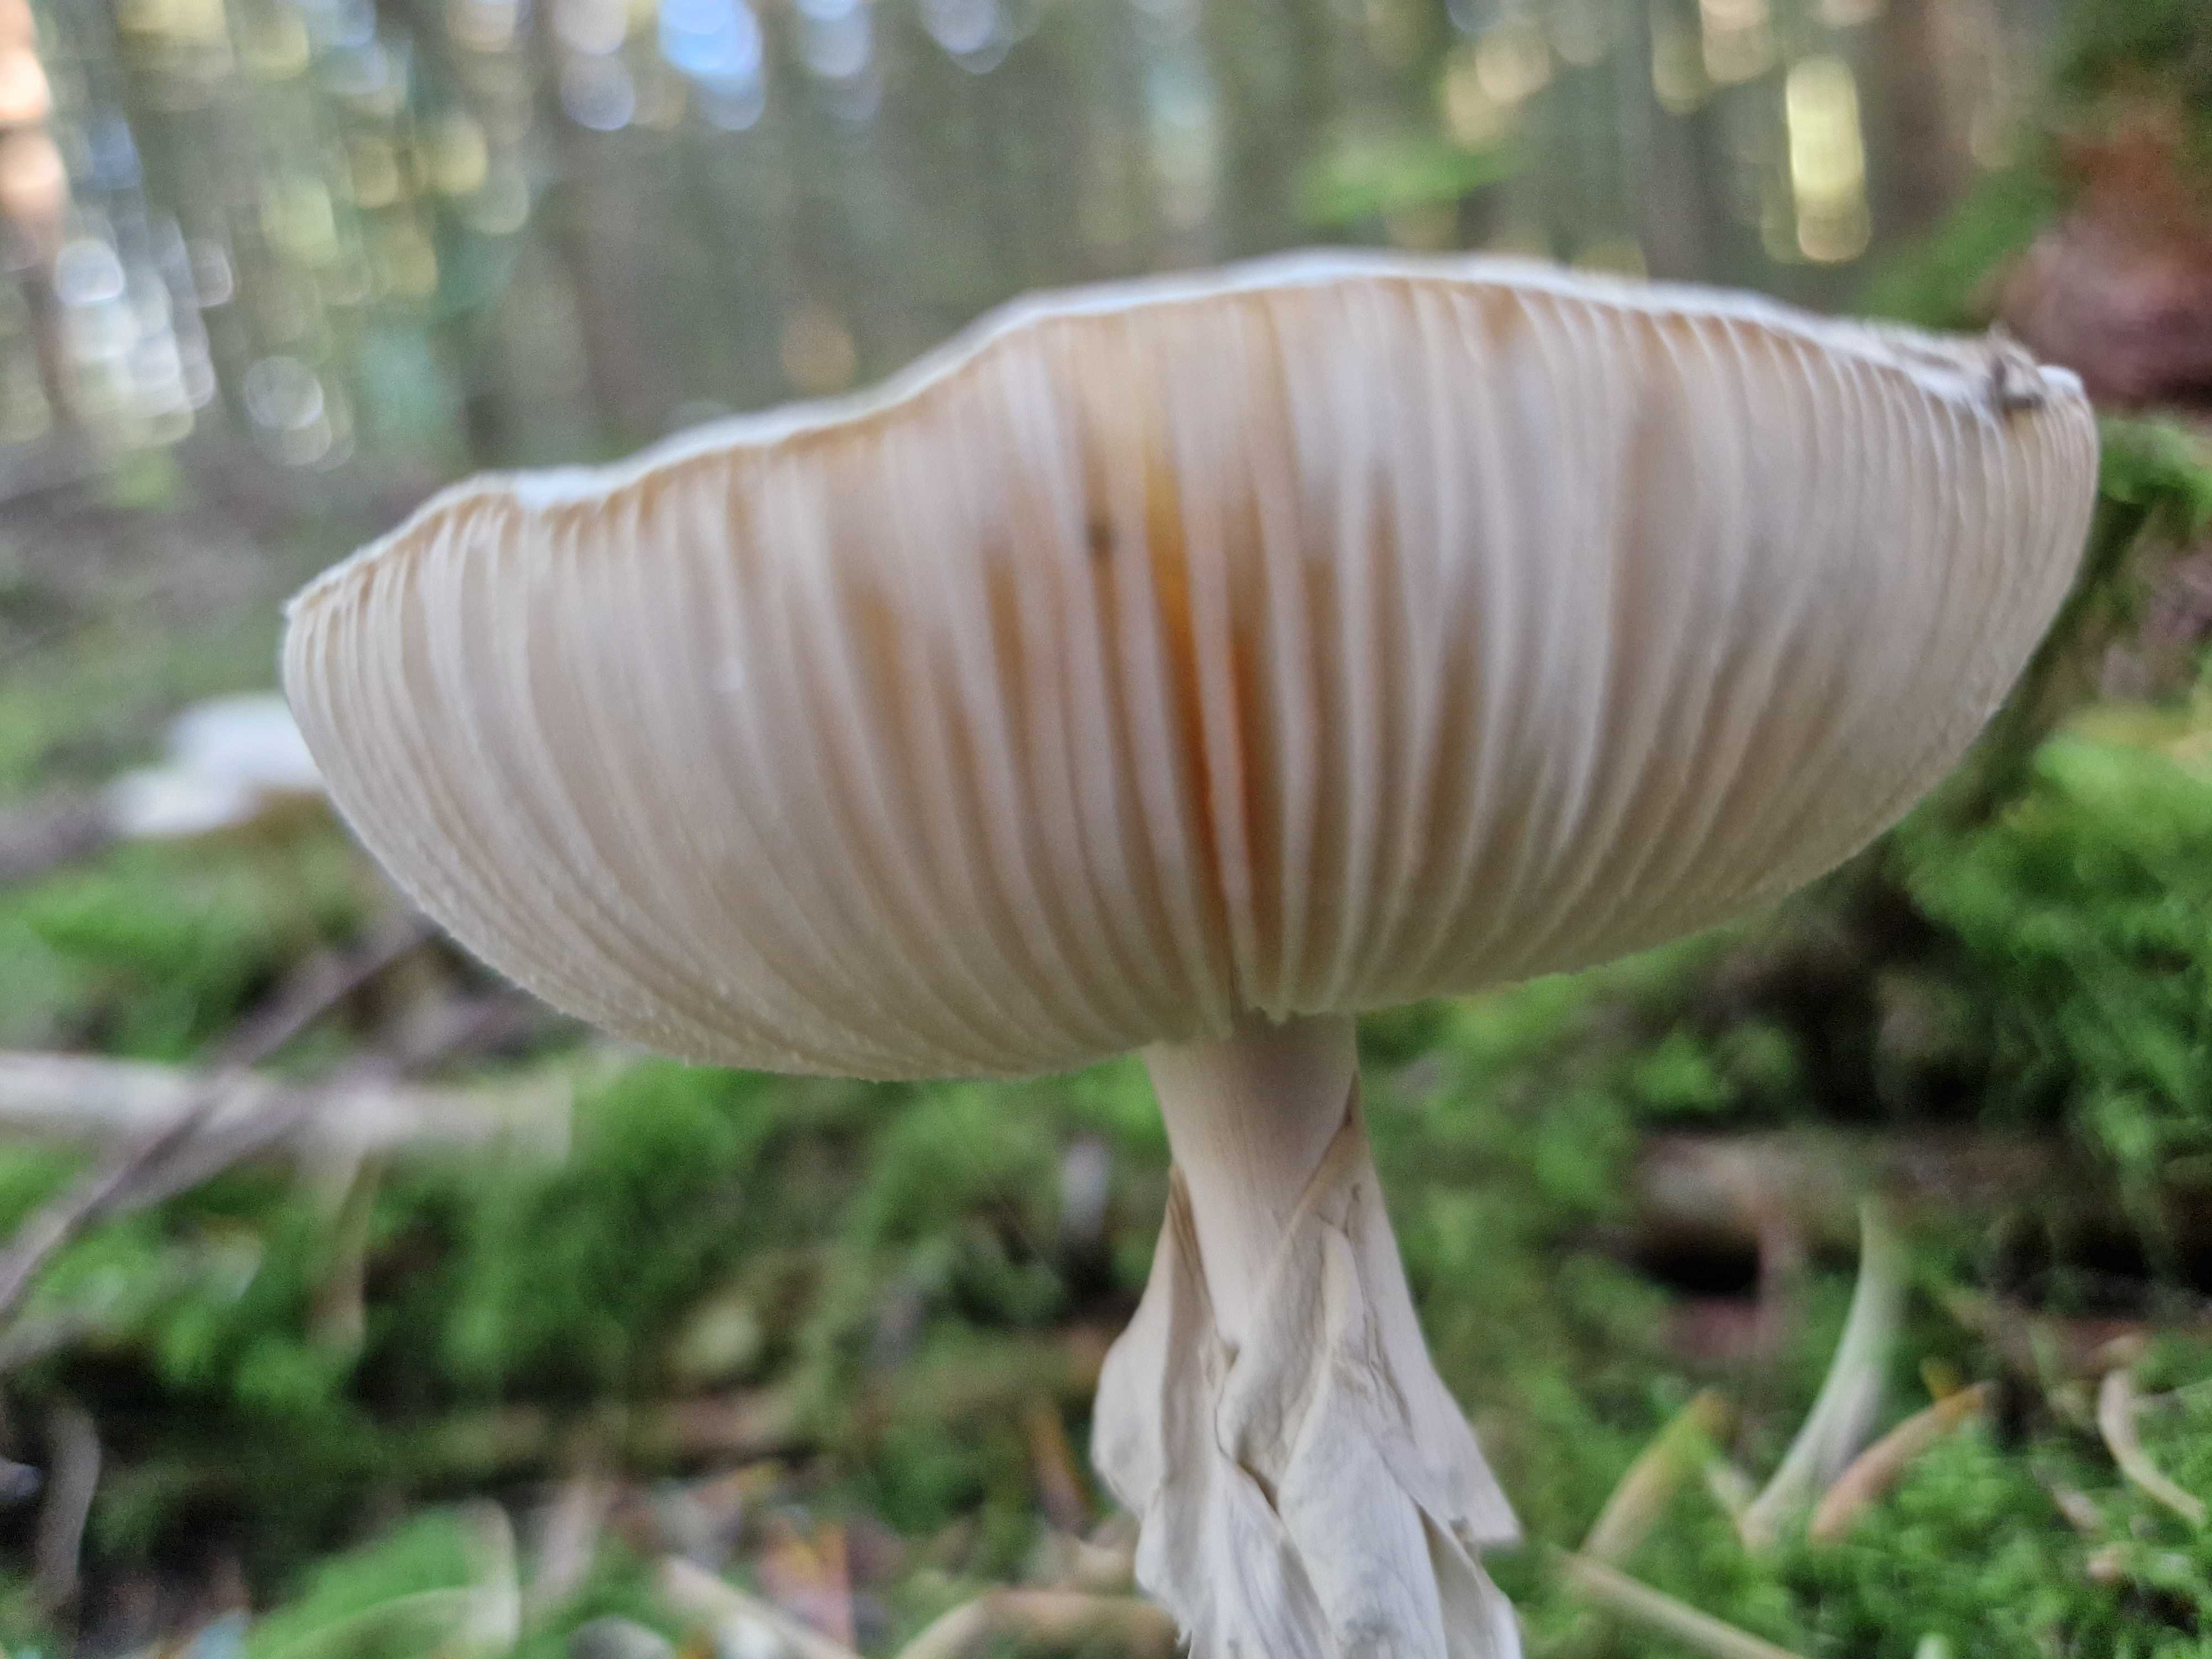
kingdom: Fungi
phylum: Basidiomycota
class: Agaricomycetes
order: Agaricales
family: Amanitaceae
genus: Amanita
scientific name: Amanita citrina
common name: kugleknoldet fluesvamp
